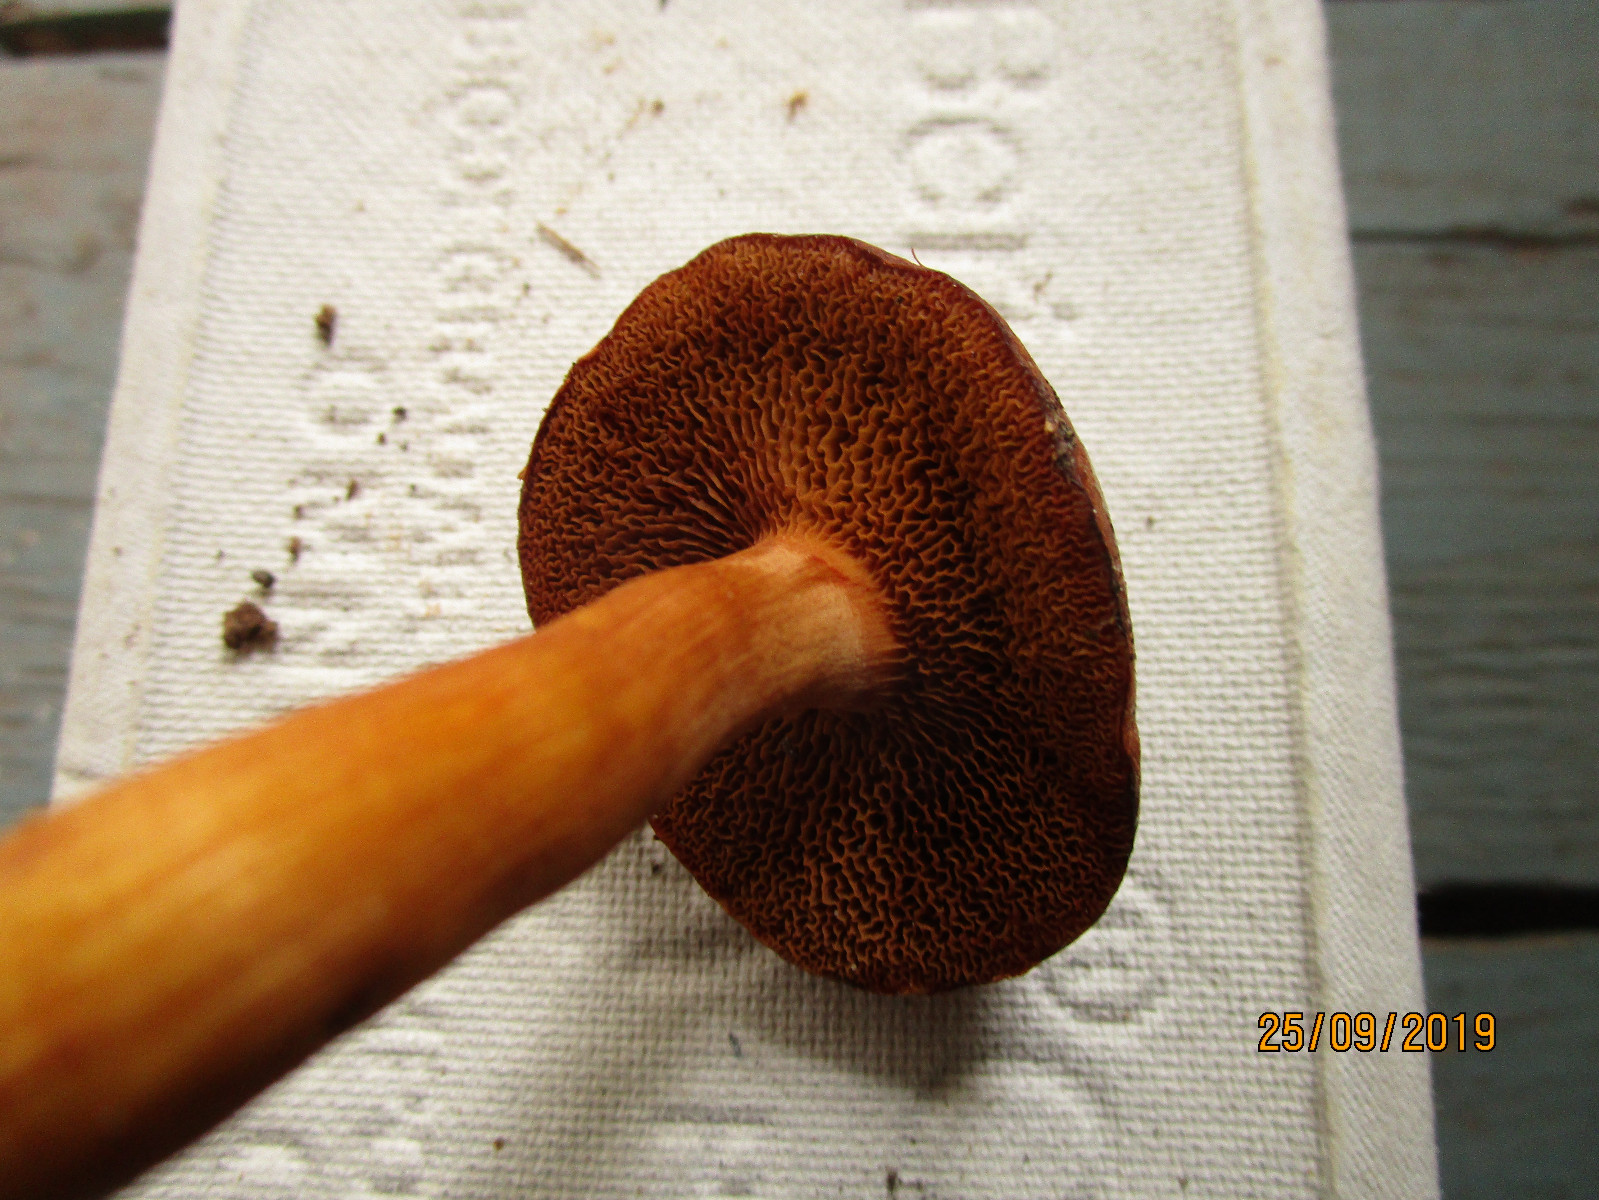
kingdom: Fungi
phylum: Basidiomycota
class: Agaricomycetes
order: Boletales
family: Boletaceae
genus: Chalciporus
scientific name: Chalciporus
